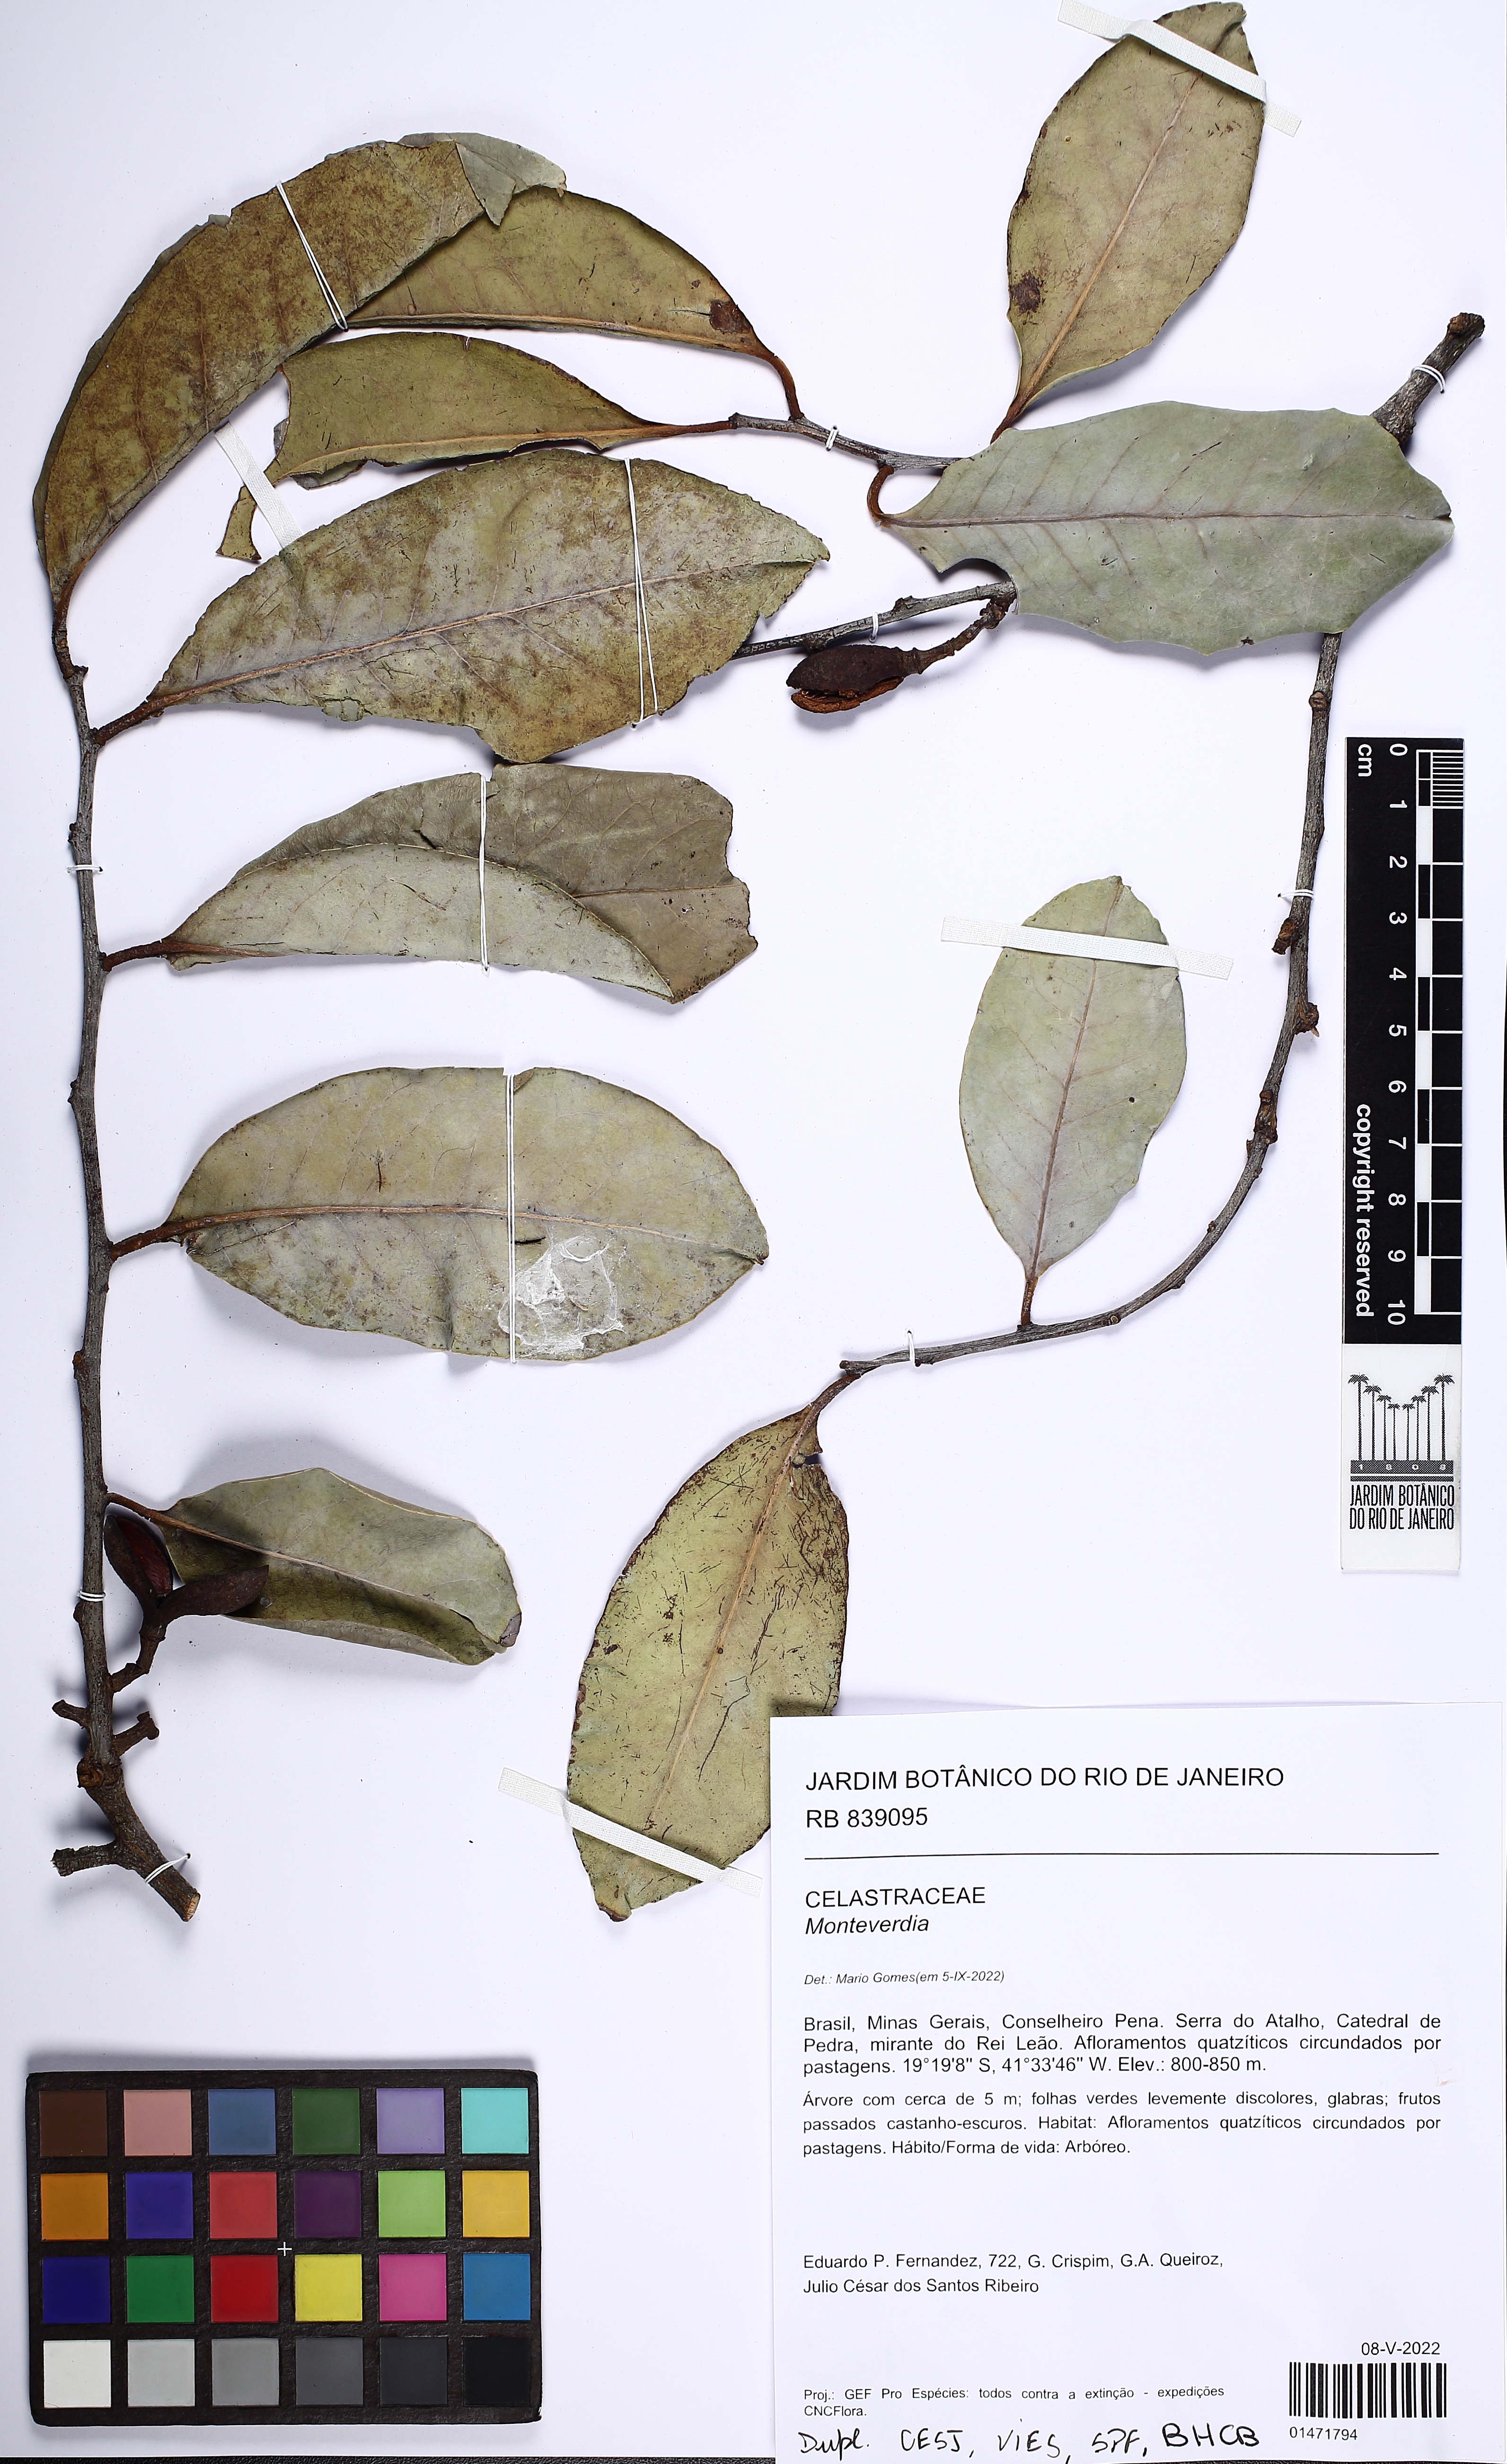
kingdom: Plantae
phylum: Tracheophyta
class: Magnoliopsida
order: Celastrales
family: Celastraceae
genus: Monteverdia
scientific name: Monteverdia
